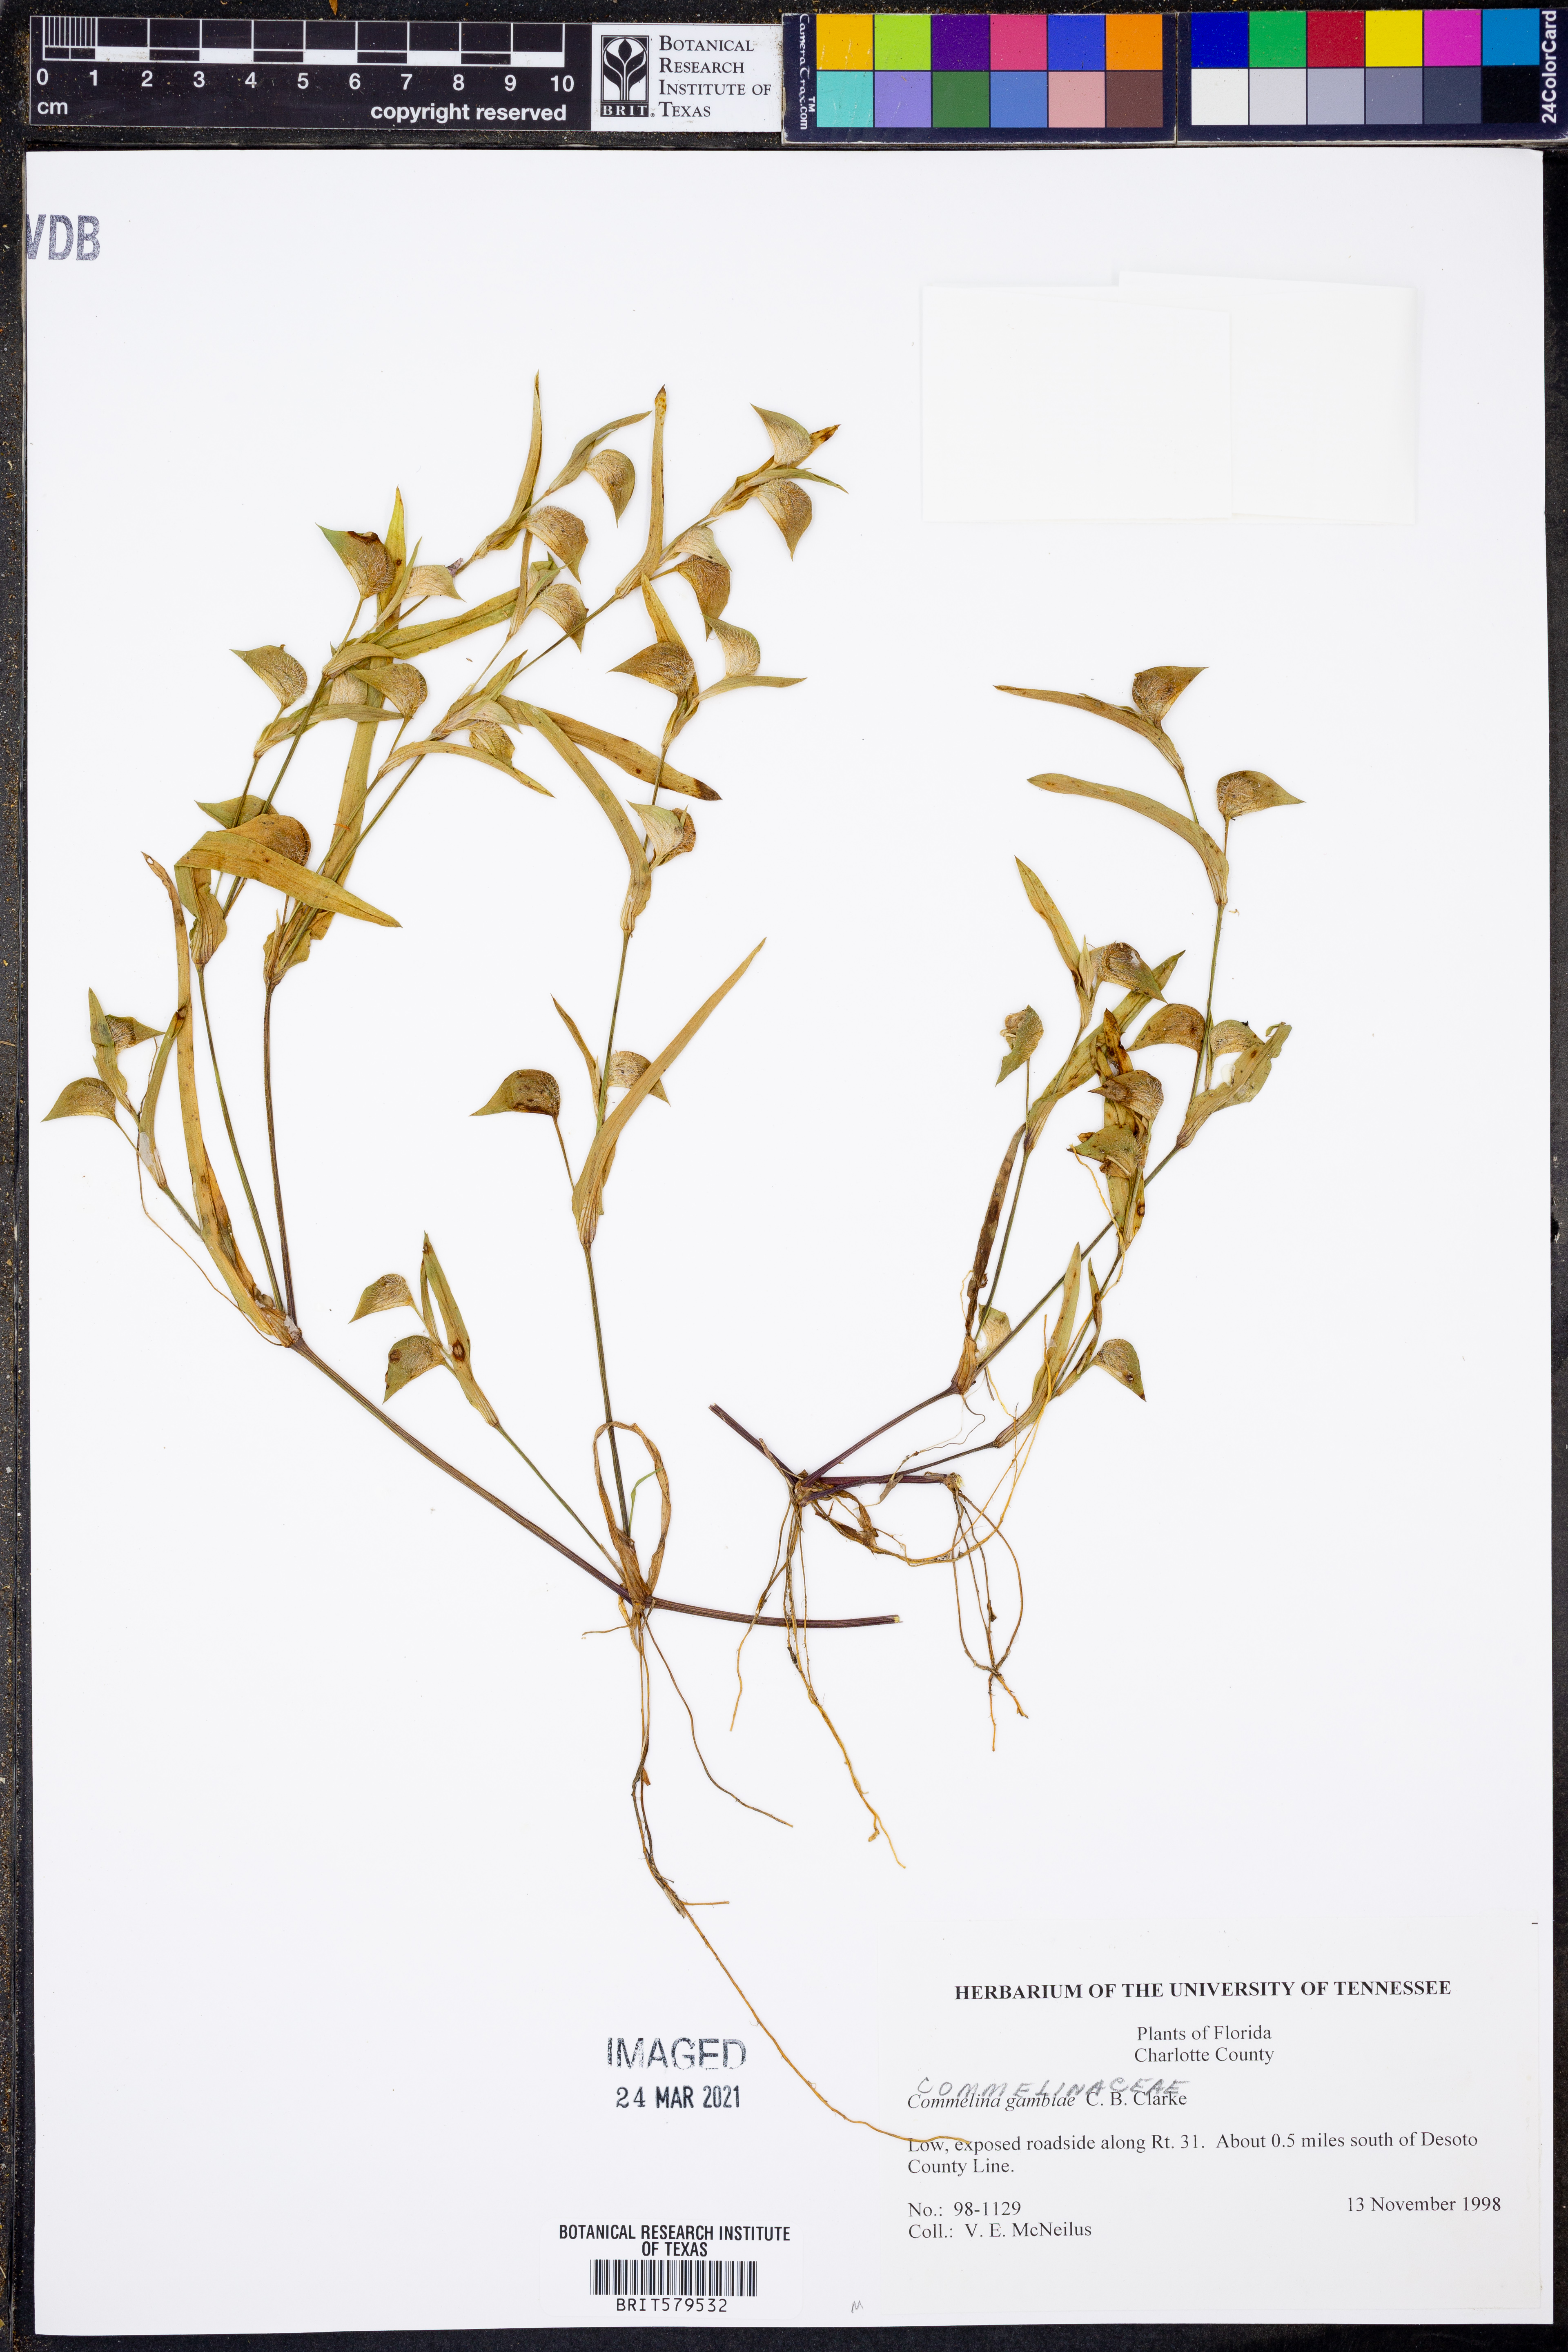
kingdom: Plantae
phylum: Tracheophyta
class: Liliopsida
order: Commelinales
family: Commelinaceae
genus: Commelina
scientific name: Commelina gambiae
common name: Gambian dayflower
